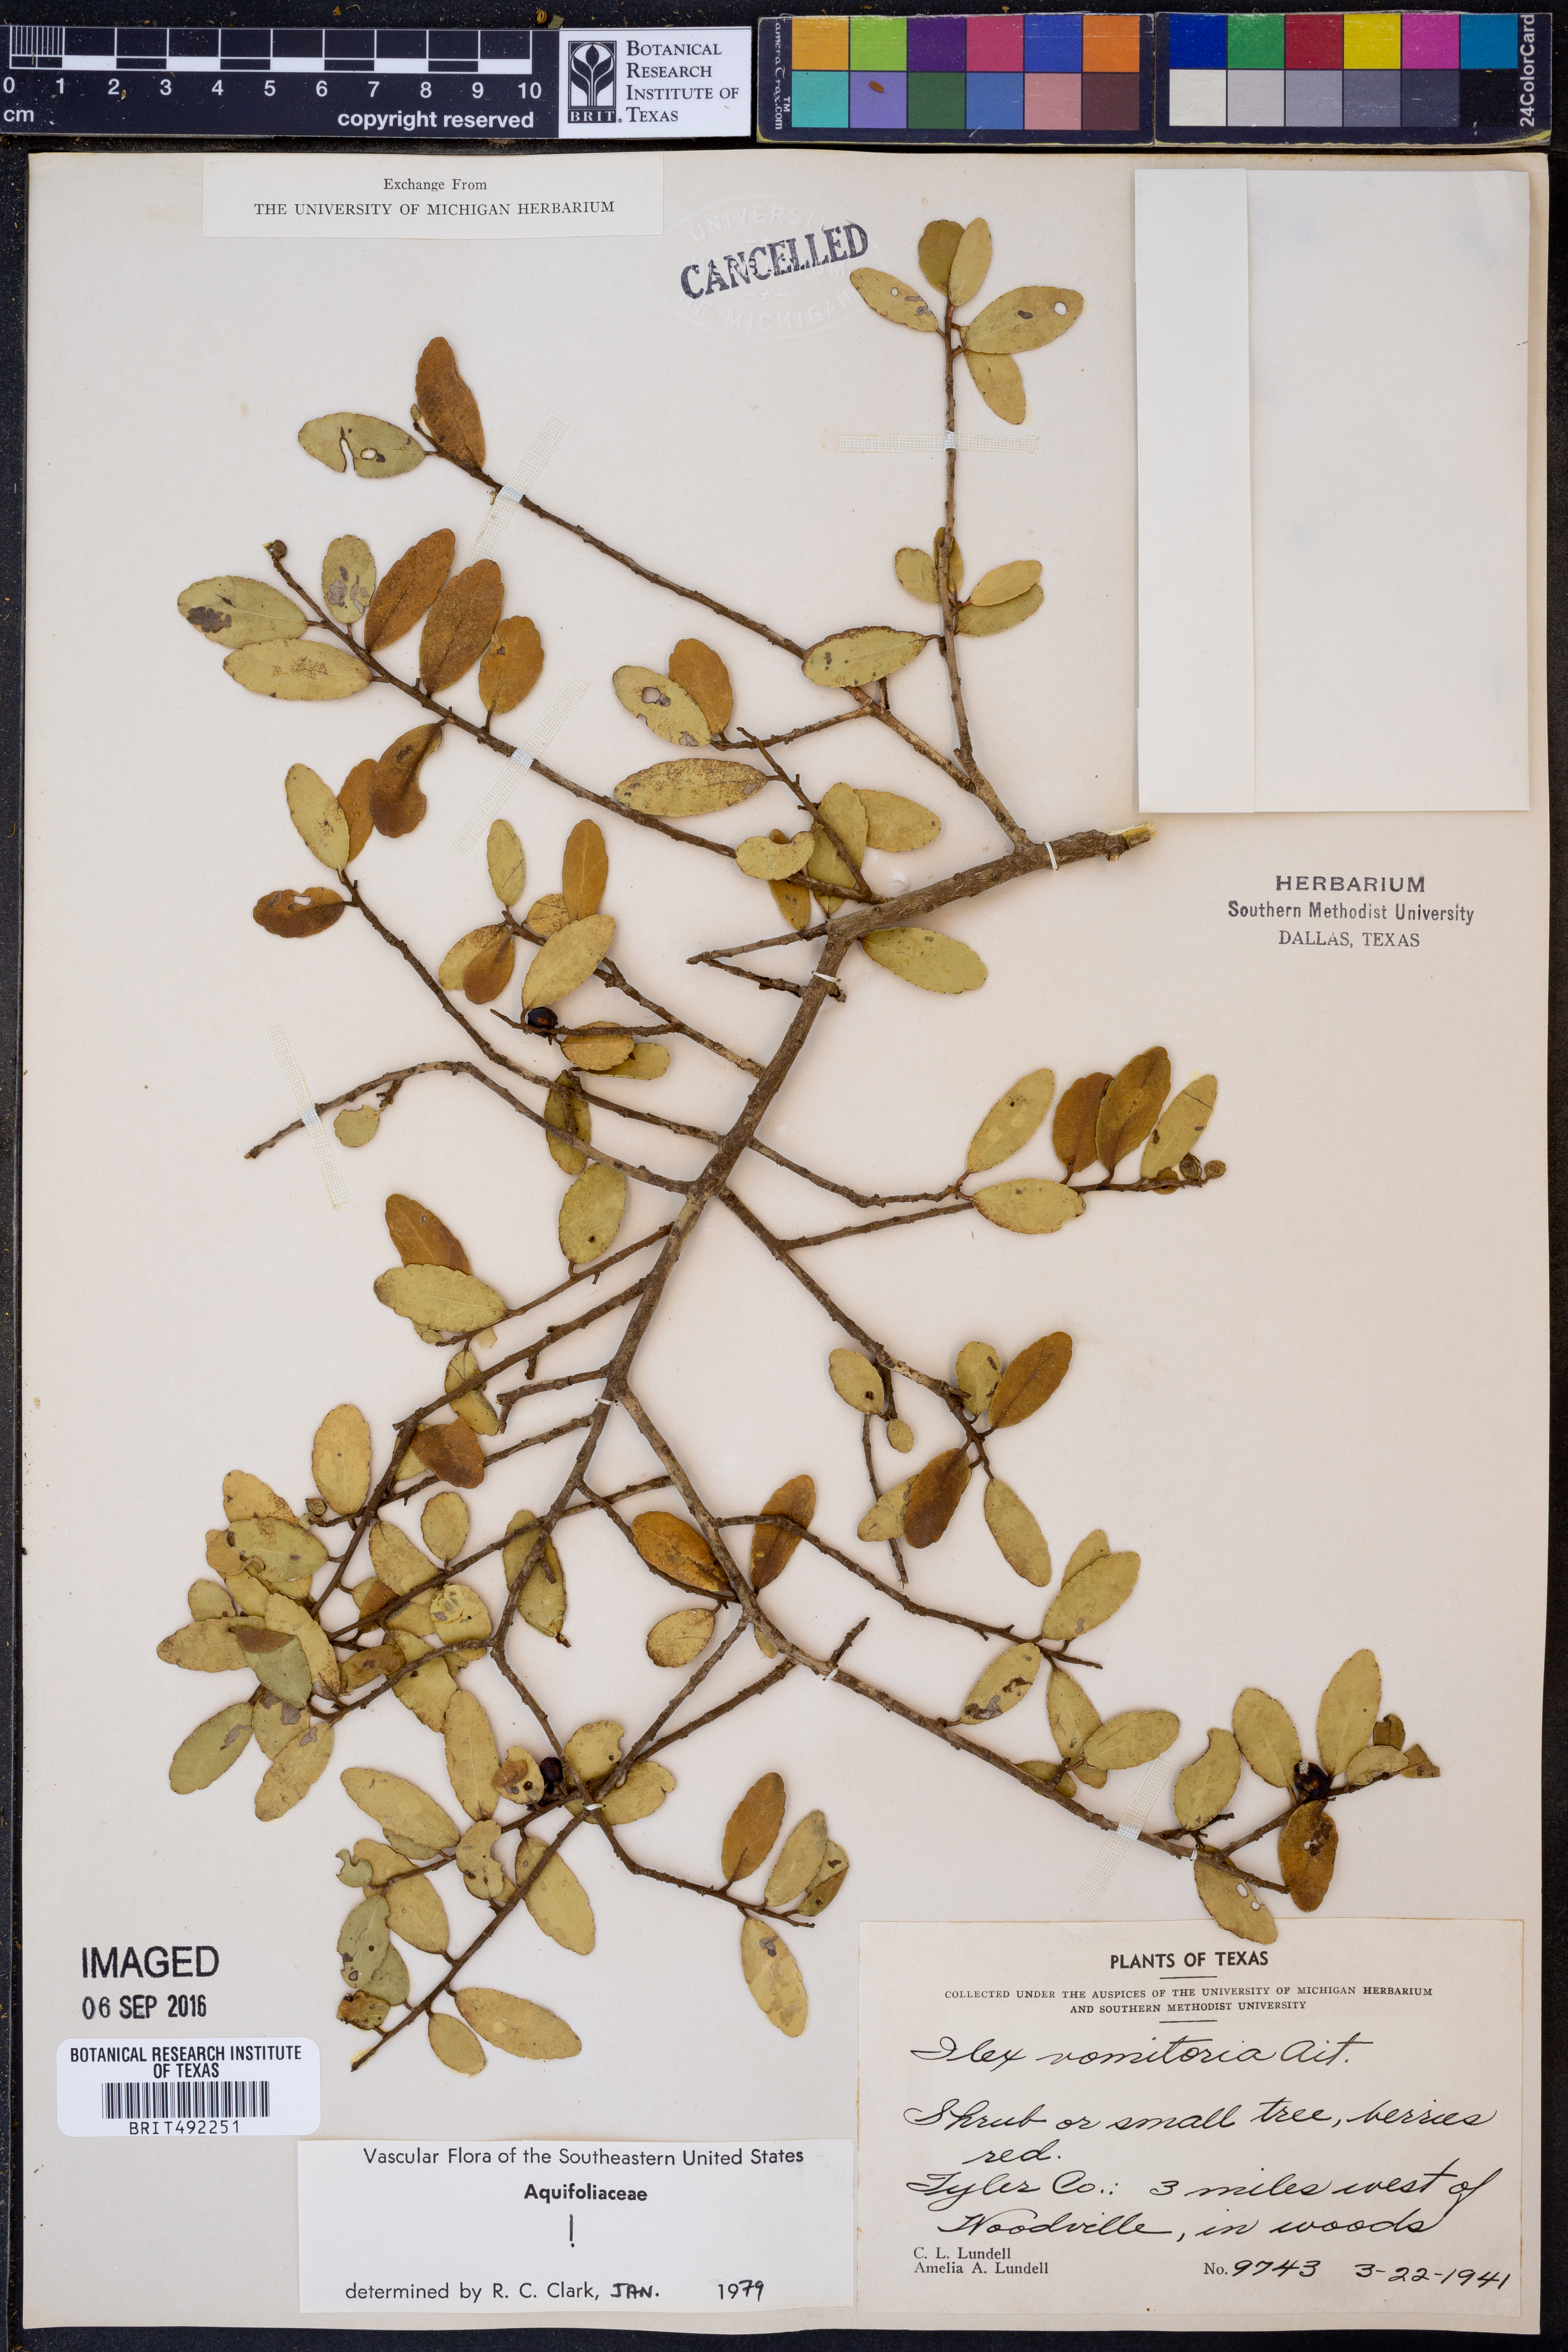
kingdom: Plantae
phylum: Tracheophyta
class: Magnoliopsida
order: Aquifoliales
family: Aquifoliaceae
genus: Ilex
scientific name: Ilex vomitoria
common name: Yaupon holly
